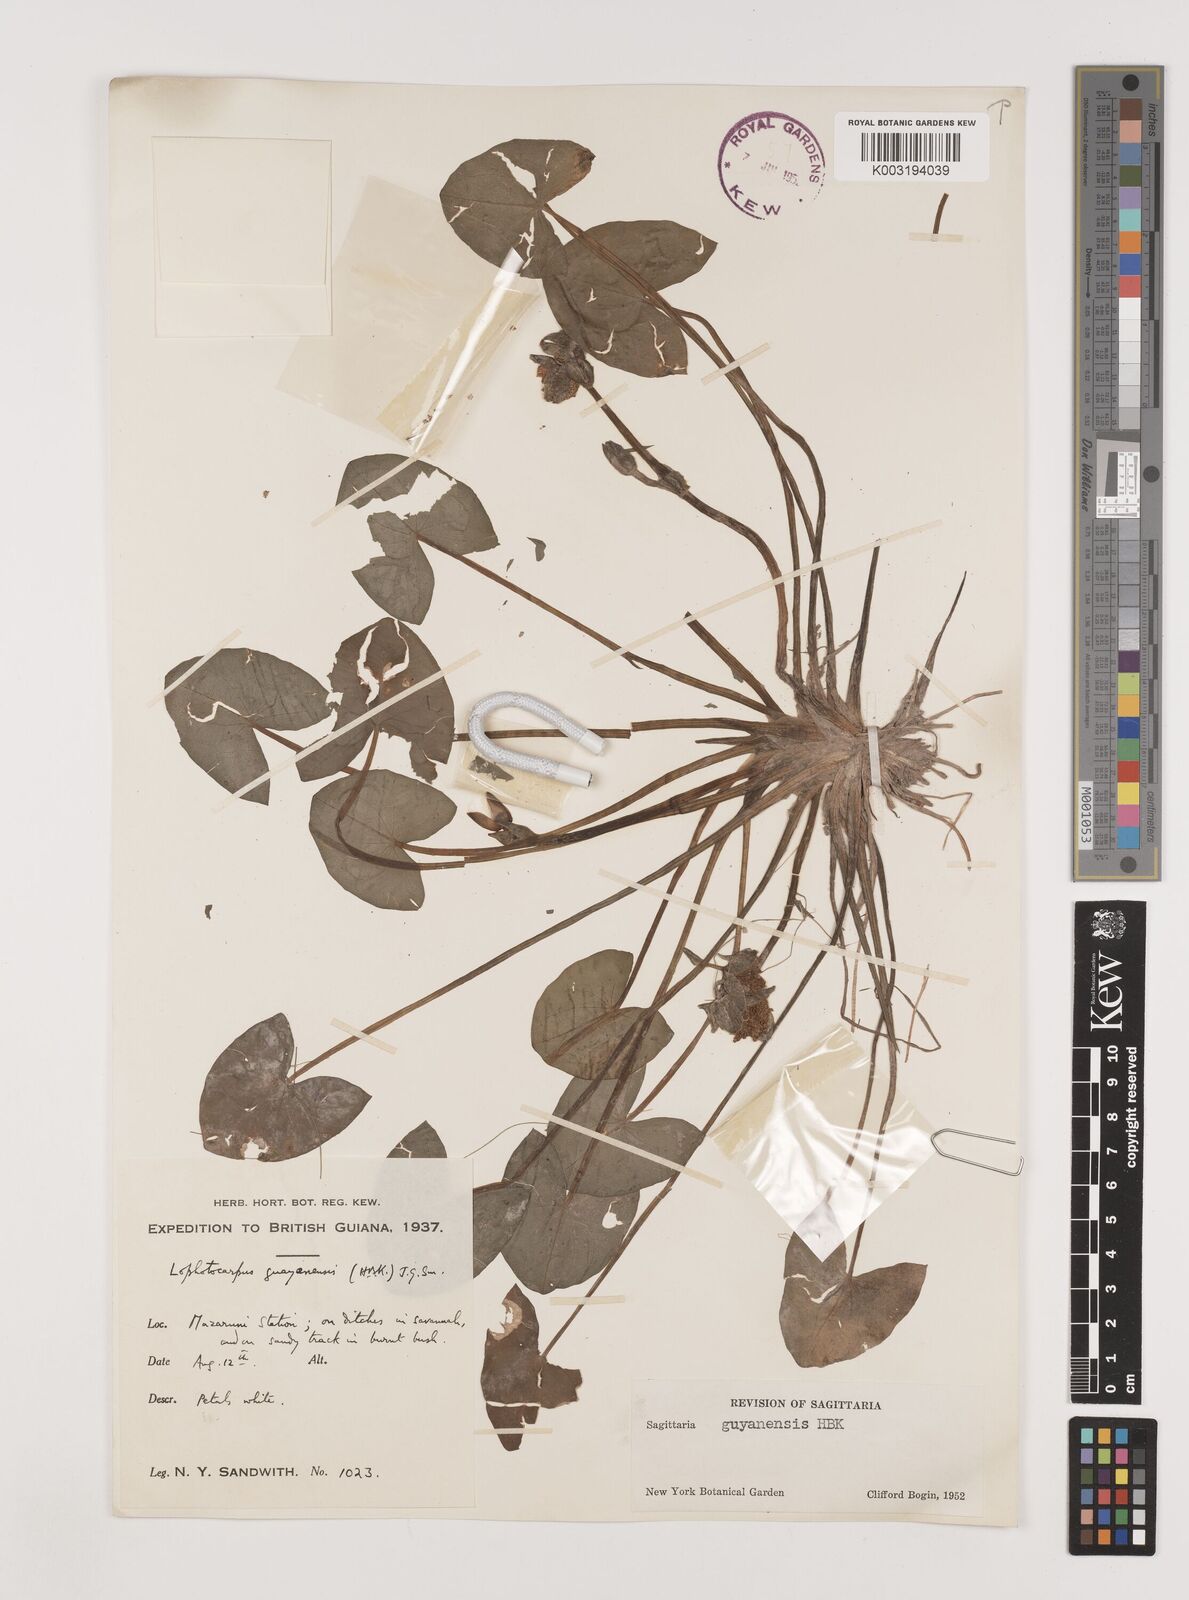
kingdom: Plantae
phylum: Tracheophyta
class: Liliopsida
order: Alismatales
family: Alismataceae
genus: Sagittaria
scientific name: Sagittaria guayanensis
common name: Guyanese arrowhead
